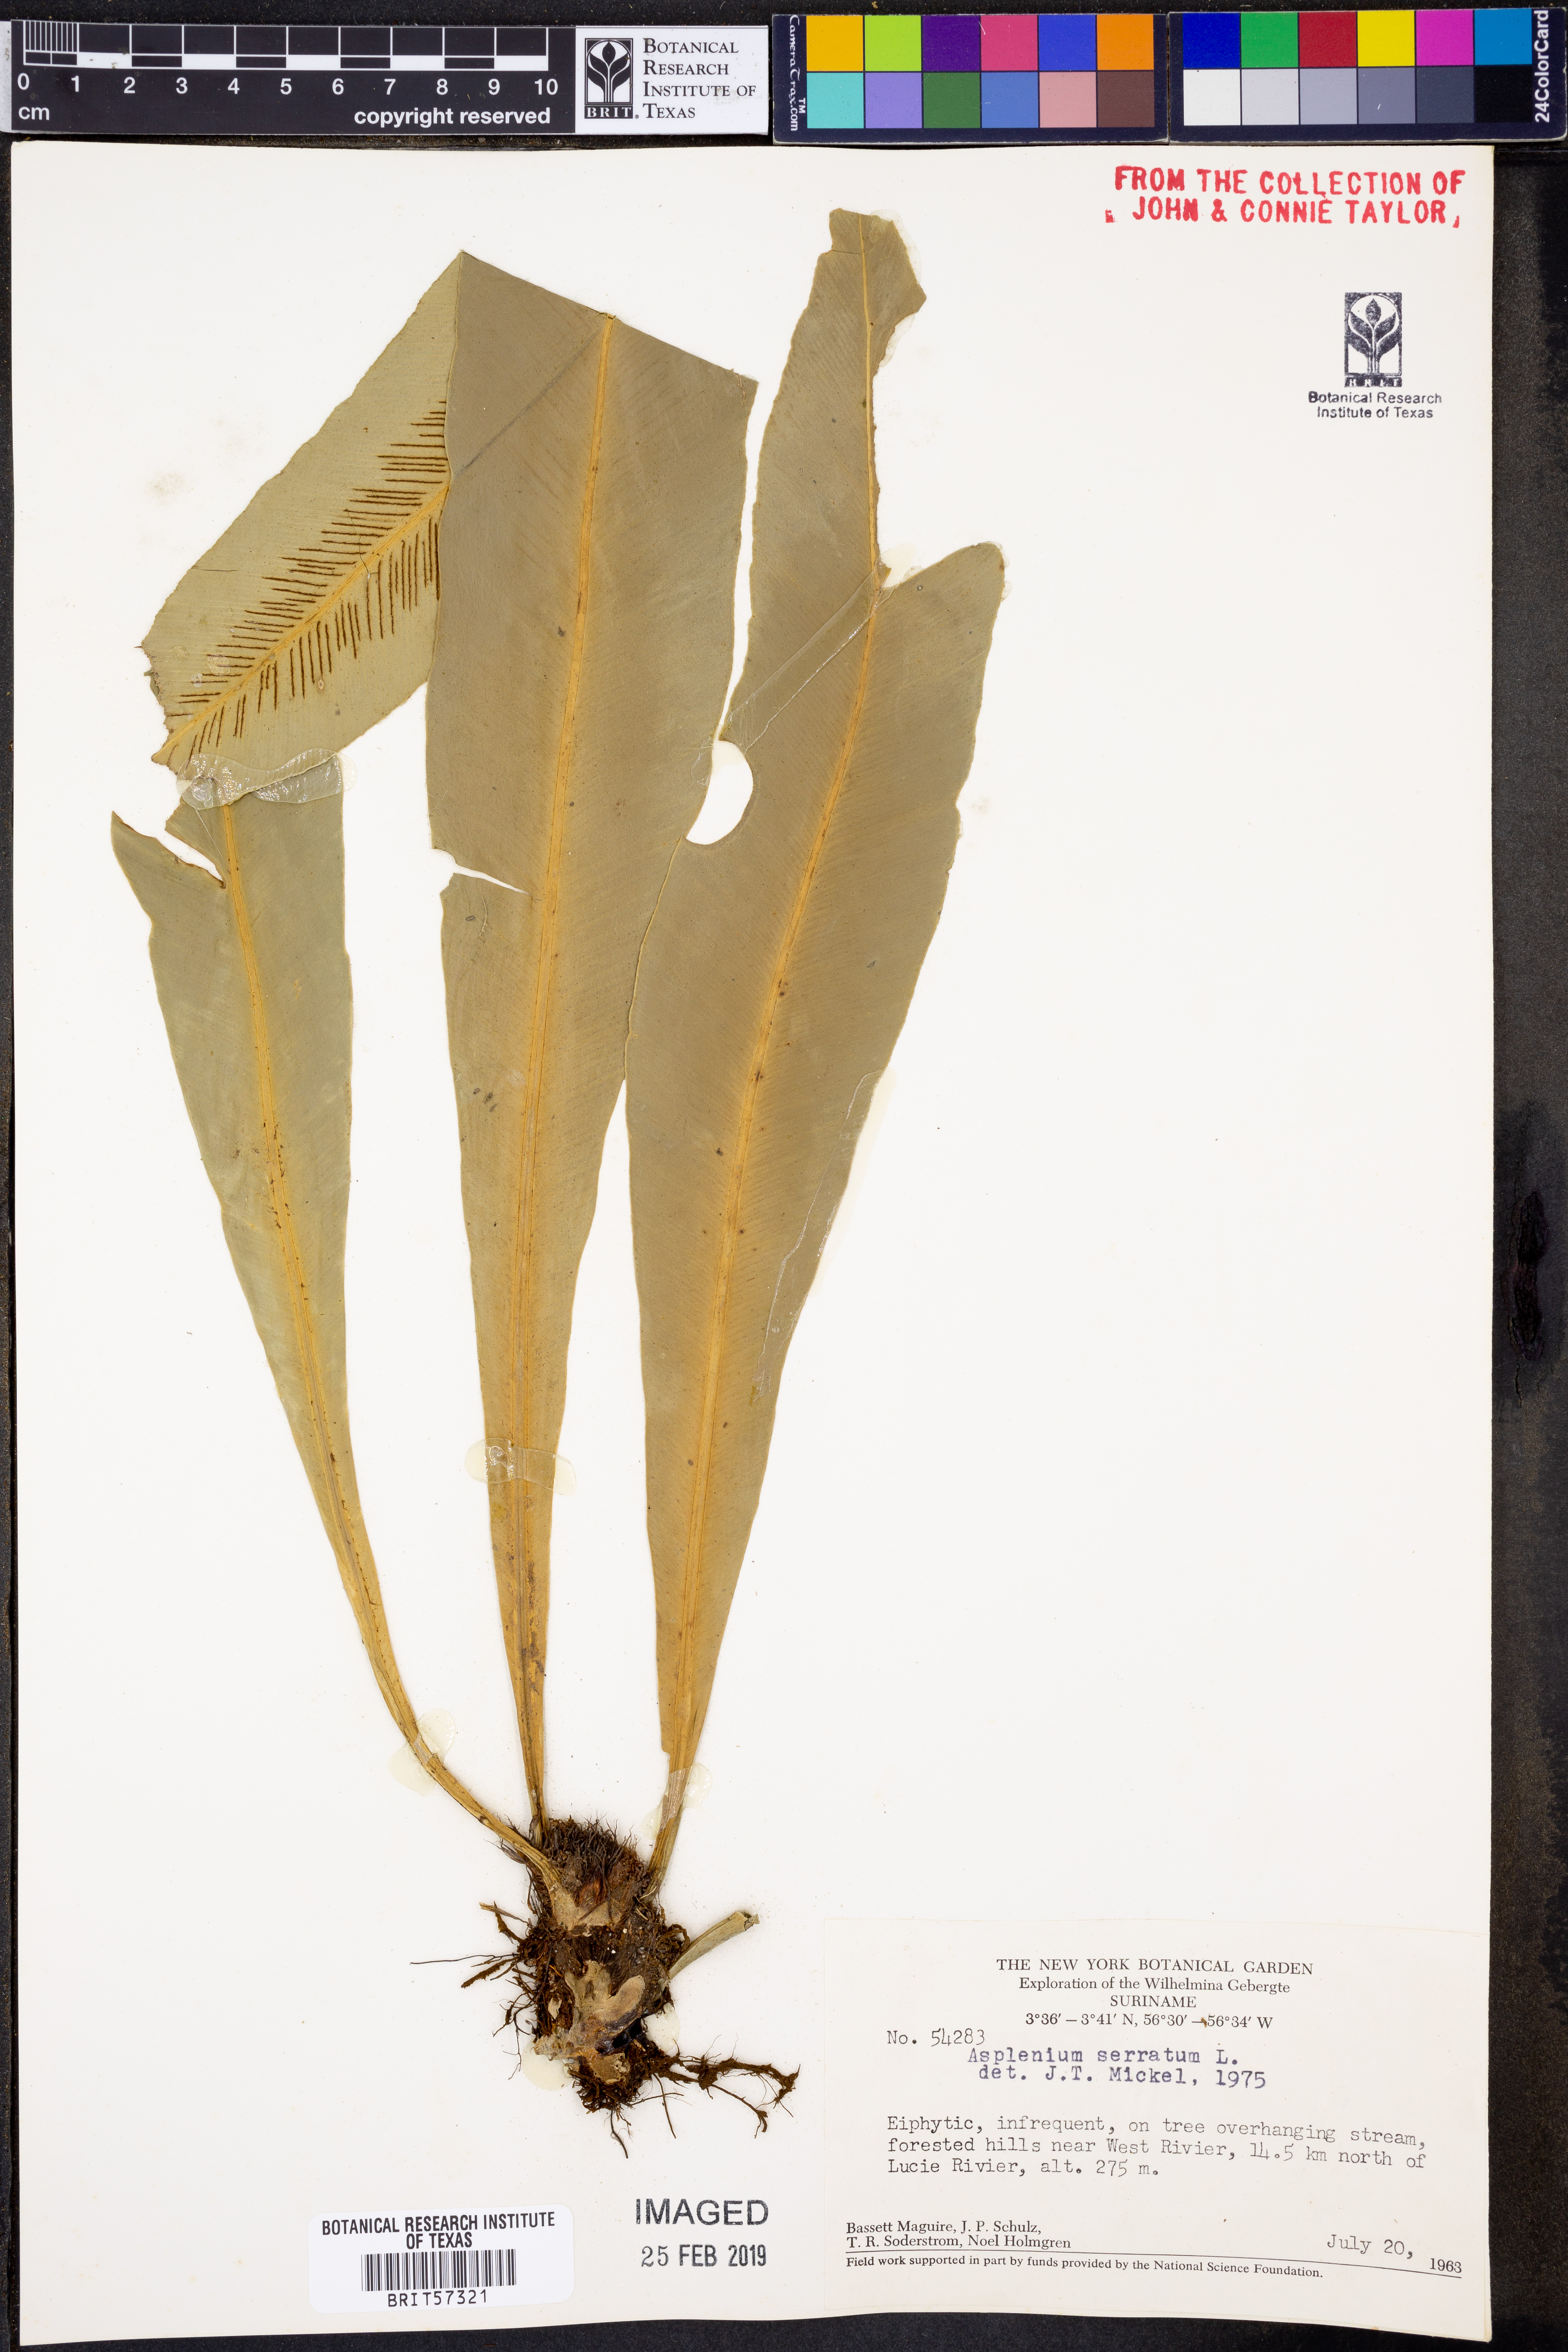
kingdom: Plantae
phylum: Tracheophyta
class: Polypodiopsida
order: Polypodiales
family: Aspleniaceae
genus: Asplenium
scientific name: Asplenium serratum
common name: Wild birdnest fern
